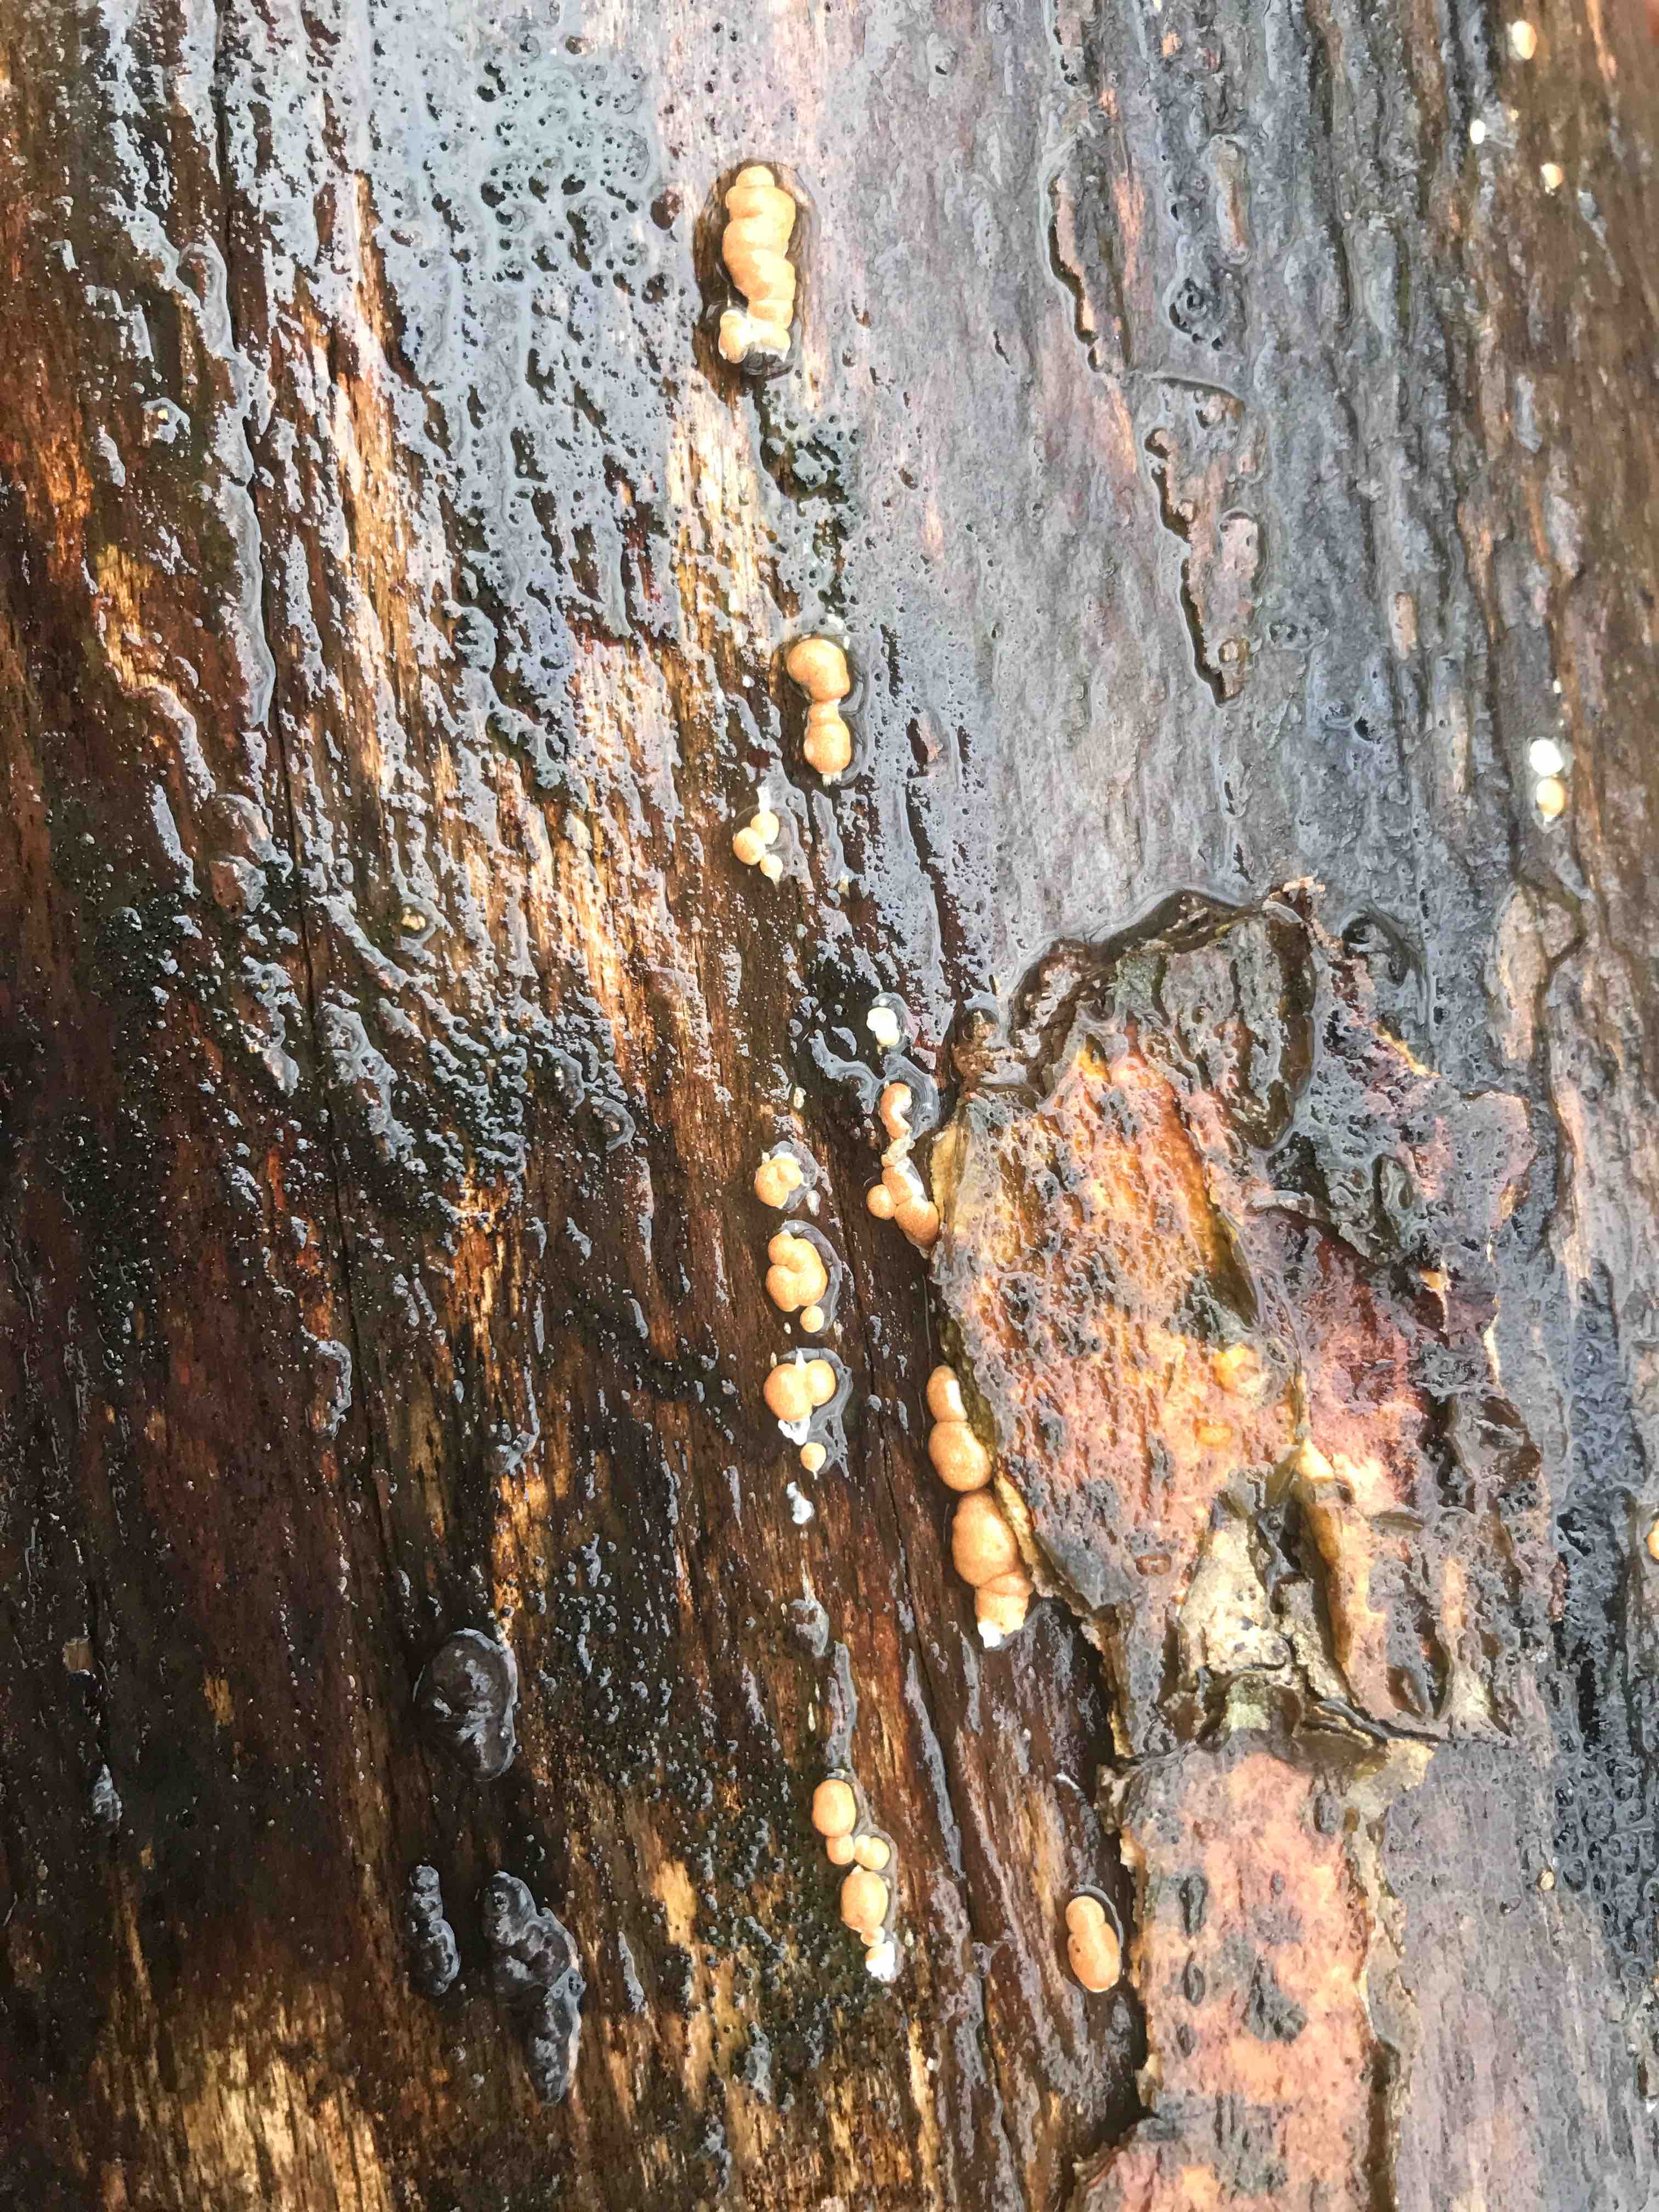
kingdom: Fungi
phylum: Ascomycota
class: Sordariomycetes
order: Hypocreales
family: Hypocreaceae
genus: Trichoderma
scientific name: Trichoderma
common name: kødkerne
